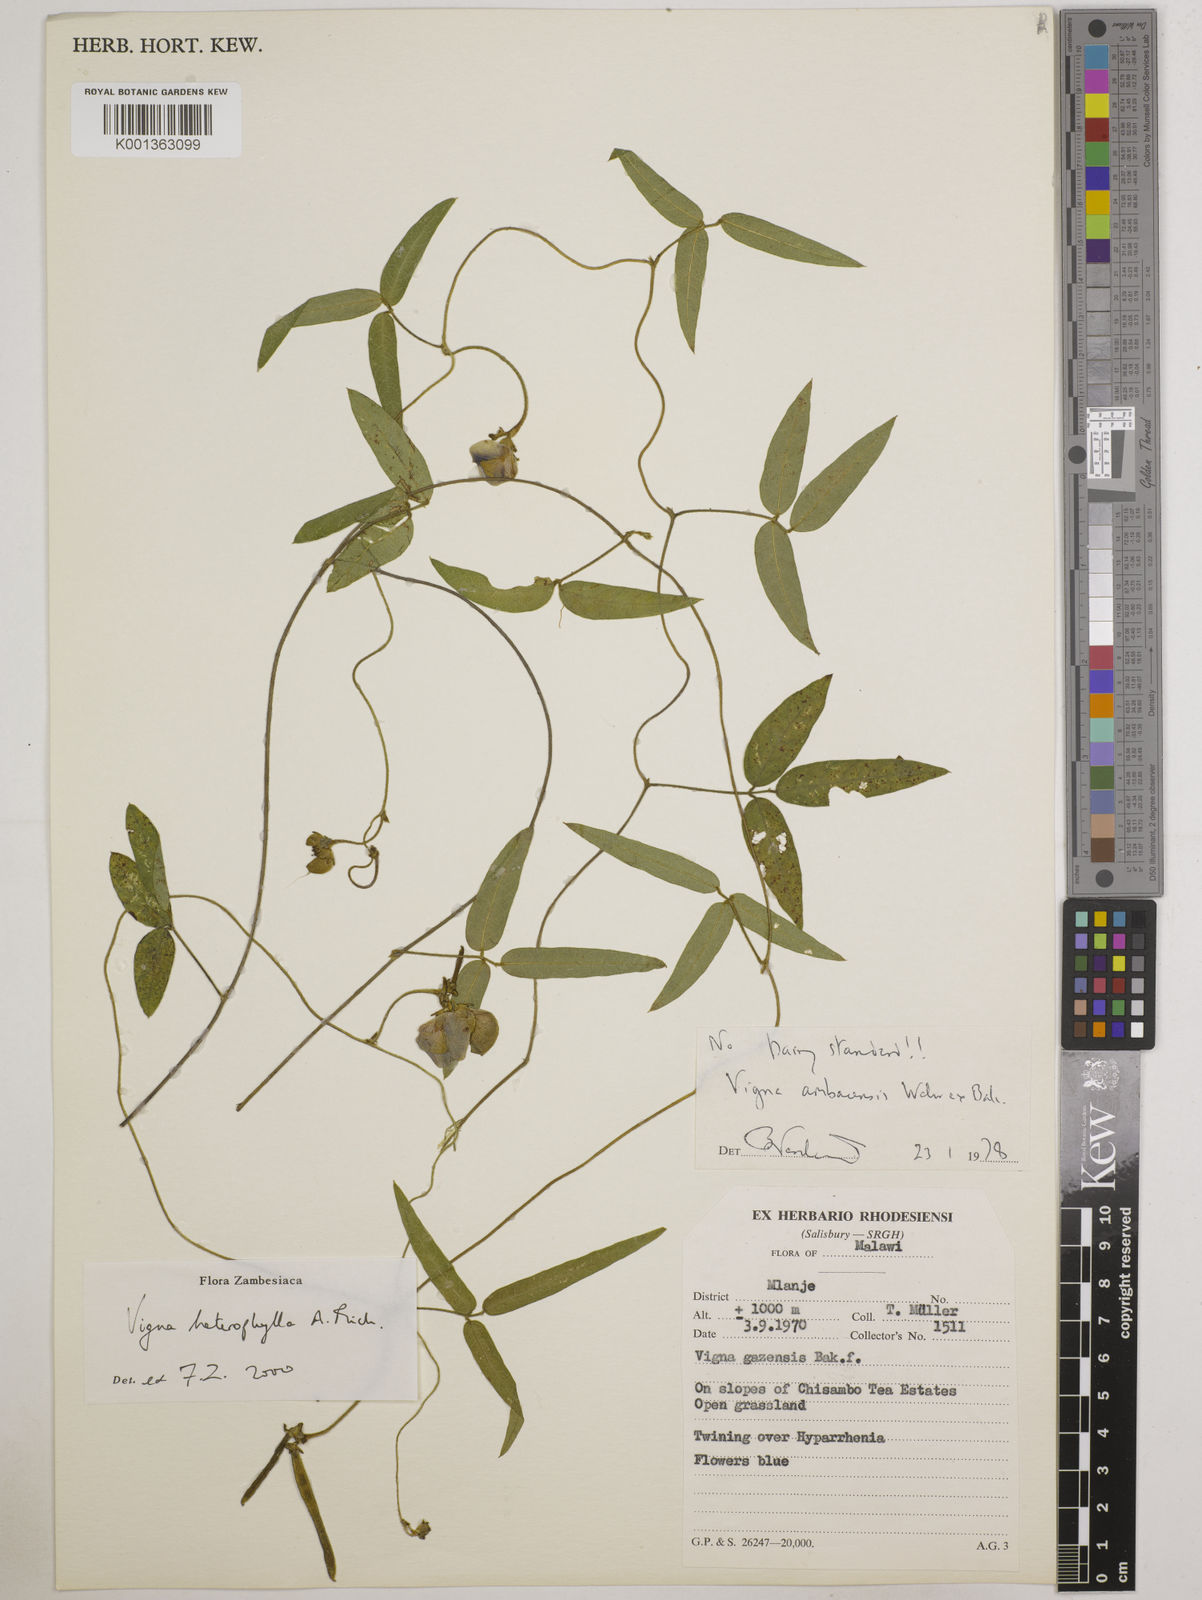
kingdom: Plantae
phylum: Tracheophyta
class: Magnoliopsida
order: Fabales
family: Fabaceae
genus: Vigna
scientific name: Vigna heterophylla
